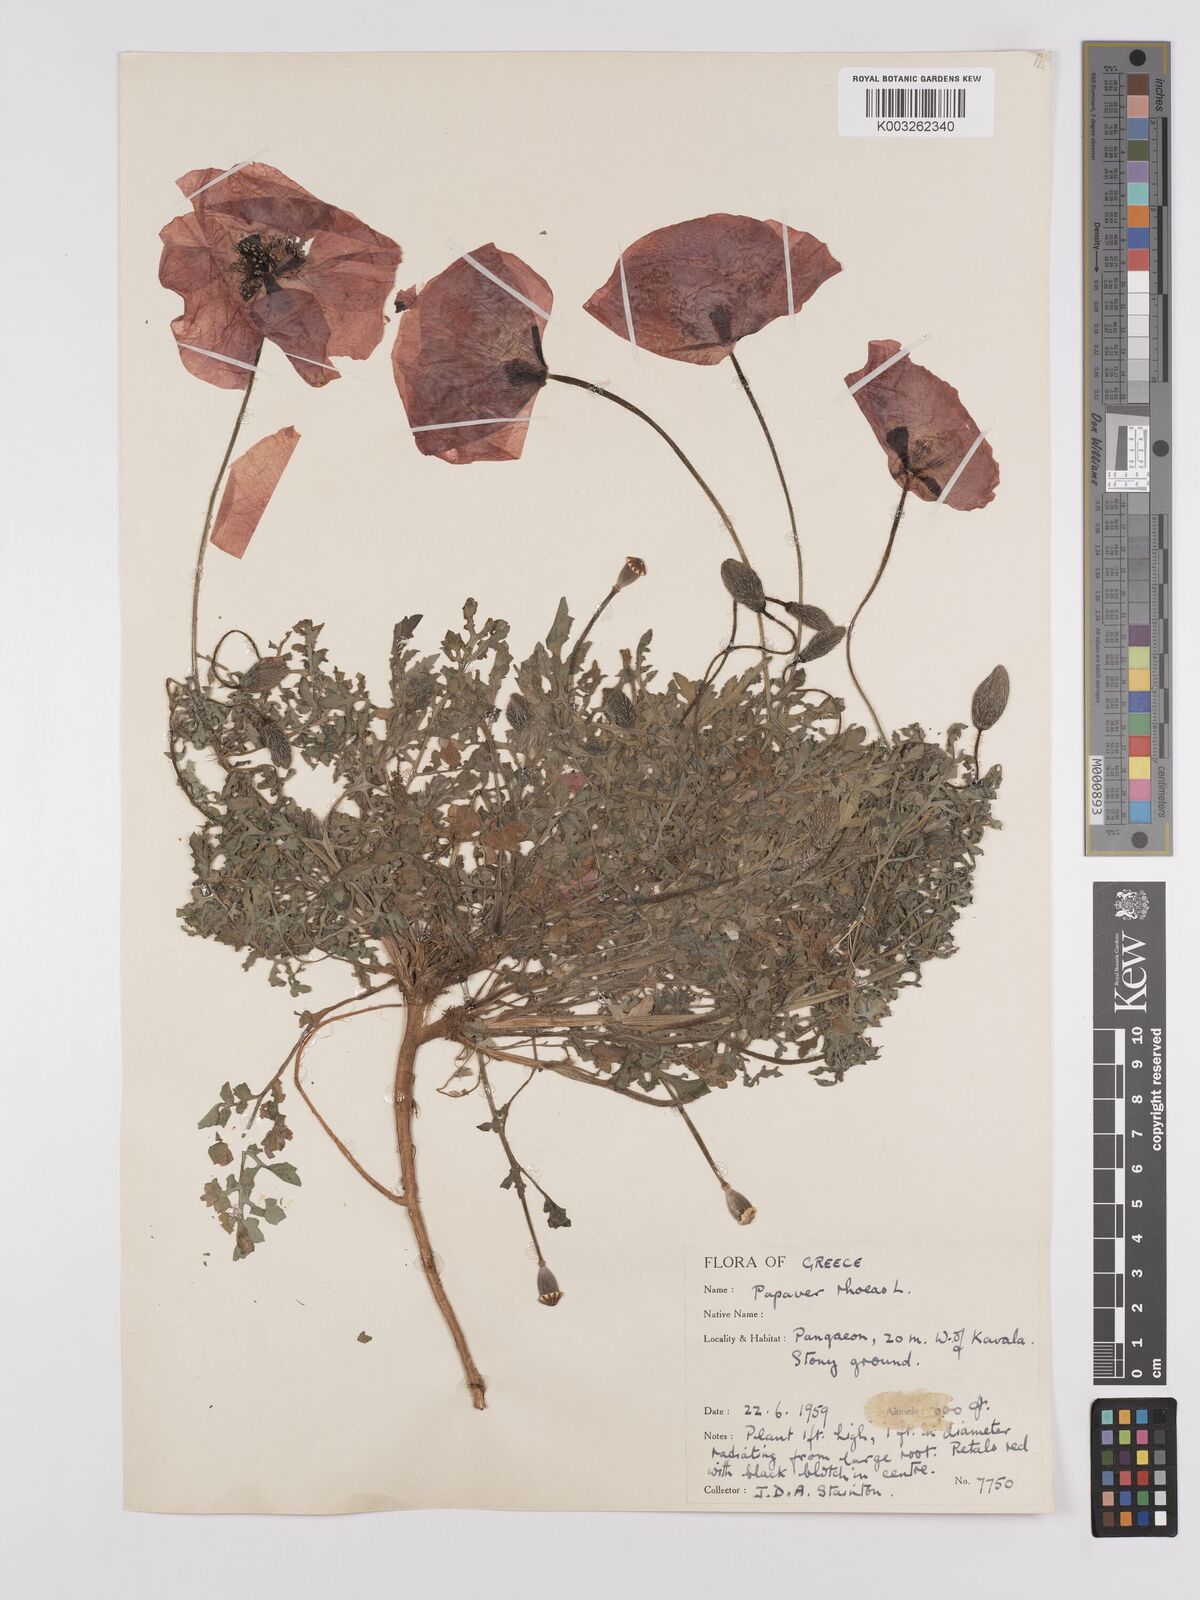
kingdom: Plantae
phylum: Tracheophyta
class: Magnoliopsida
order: Ranunculales
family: Papaveraceae
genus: Papaver
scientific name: Papaver rhoeas
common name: Corn poppy
